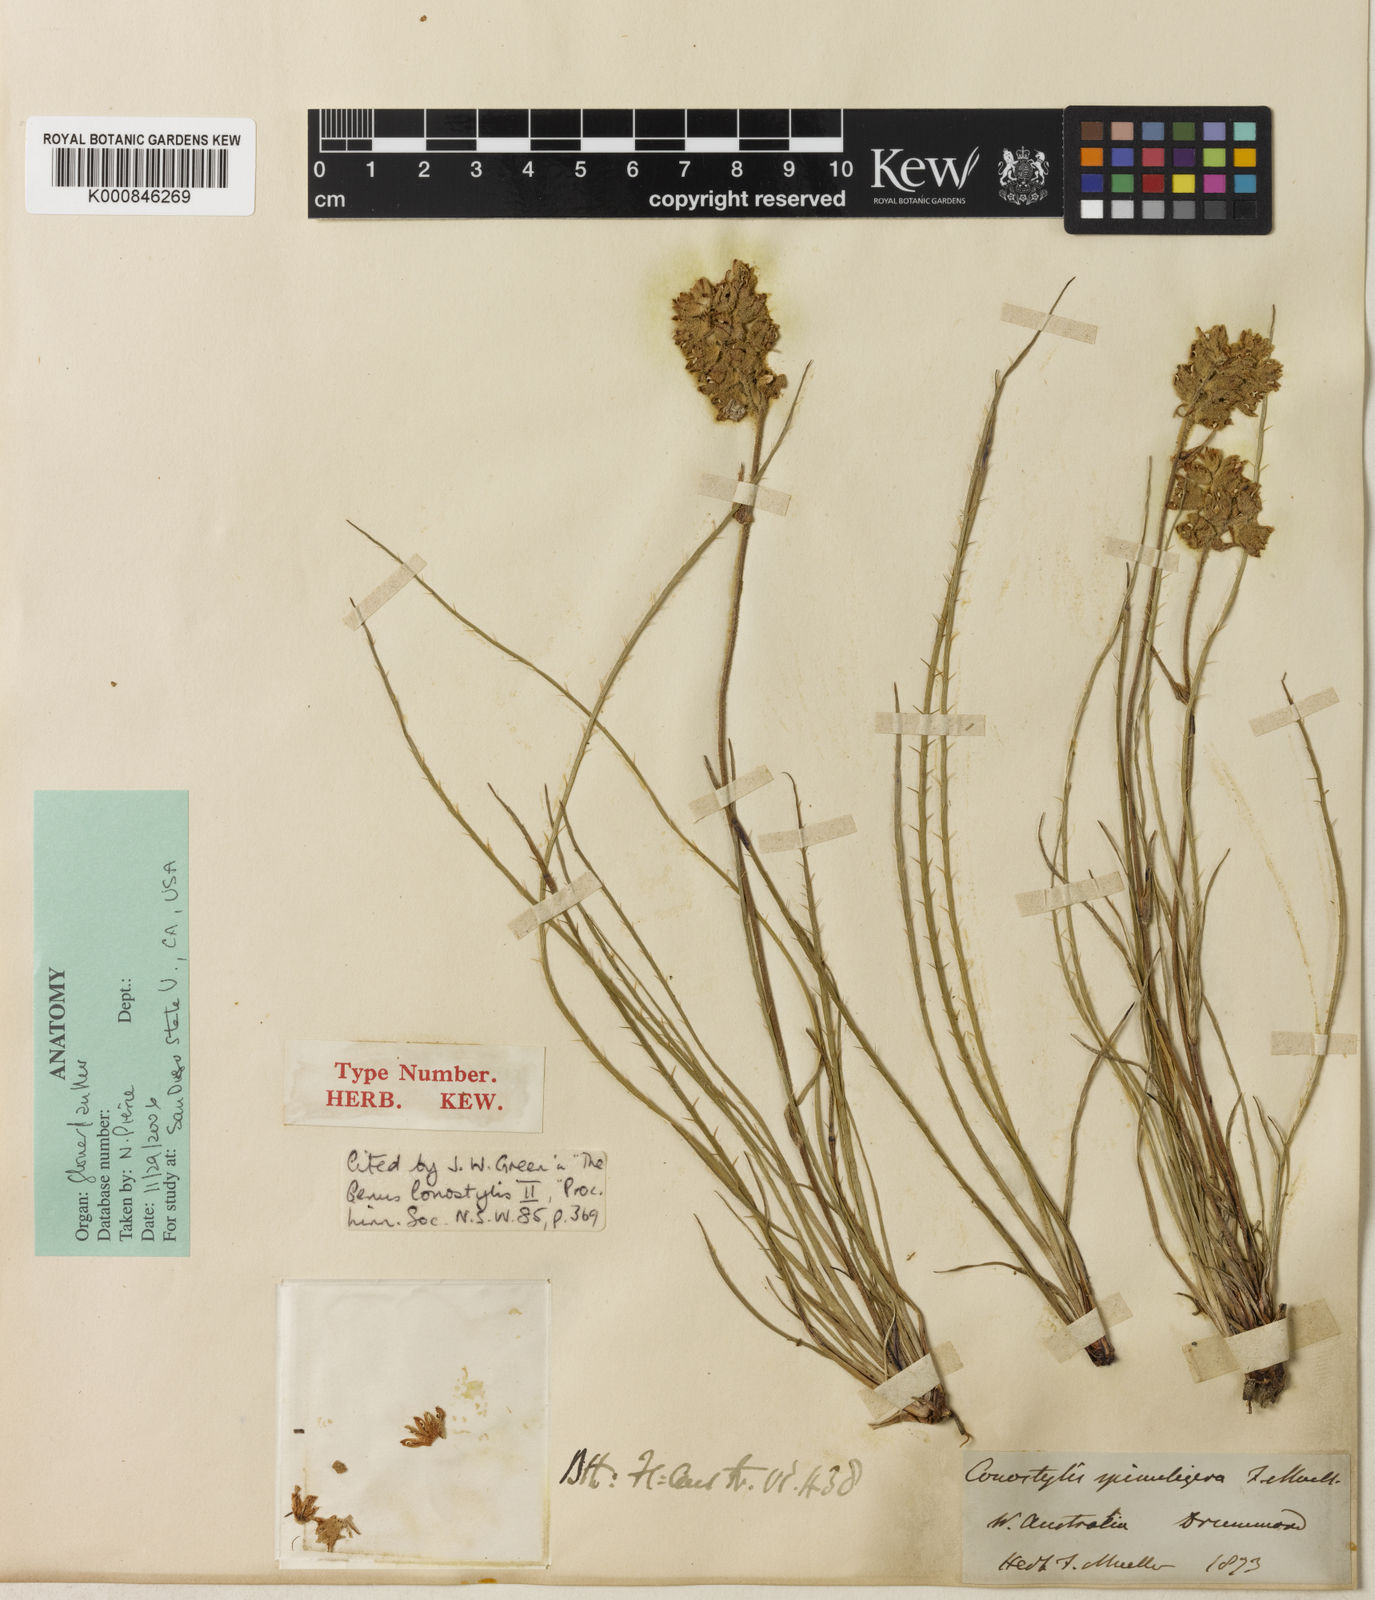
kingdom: Plantae
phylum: Tracheophyta
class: Liliopsida
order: Commelinales
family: Haemodoraceae
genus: Conostylis
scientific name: Conostylis aculeata
